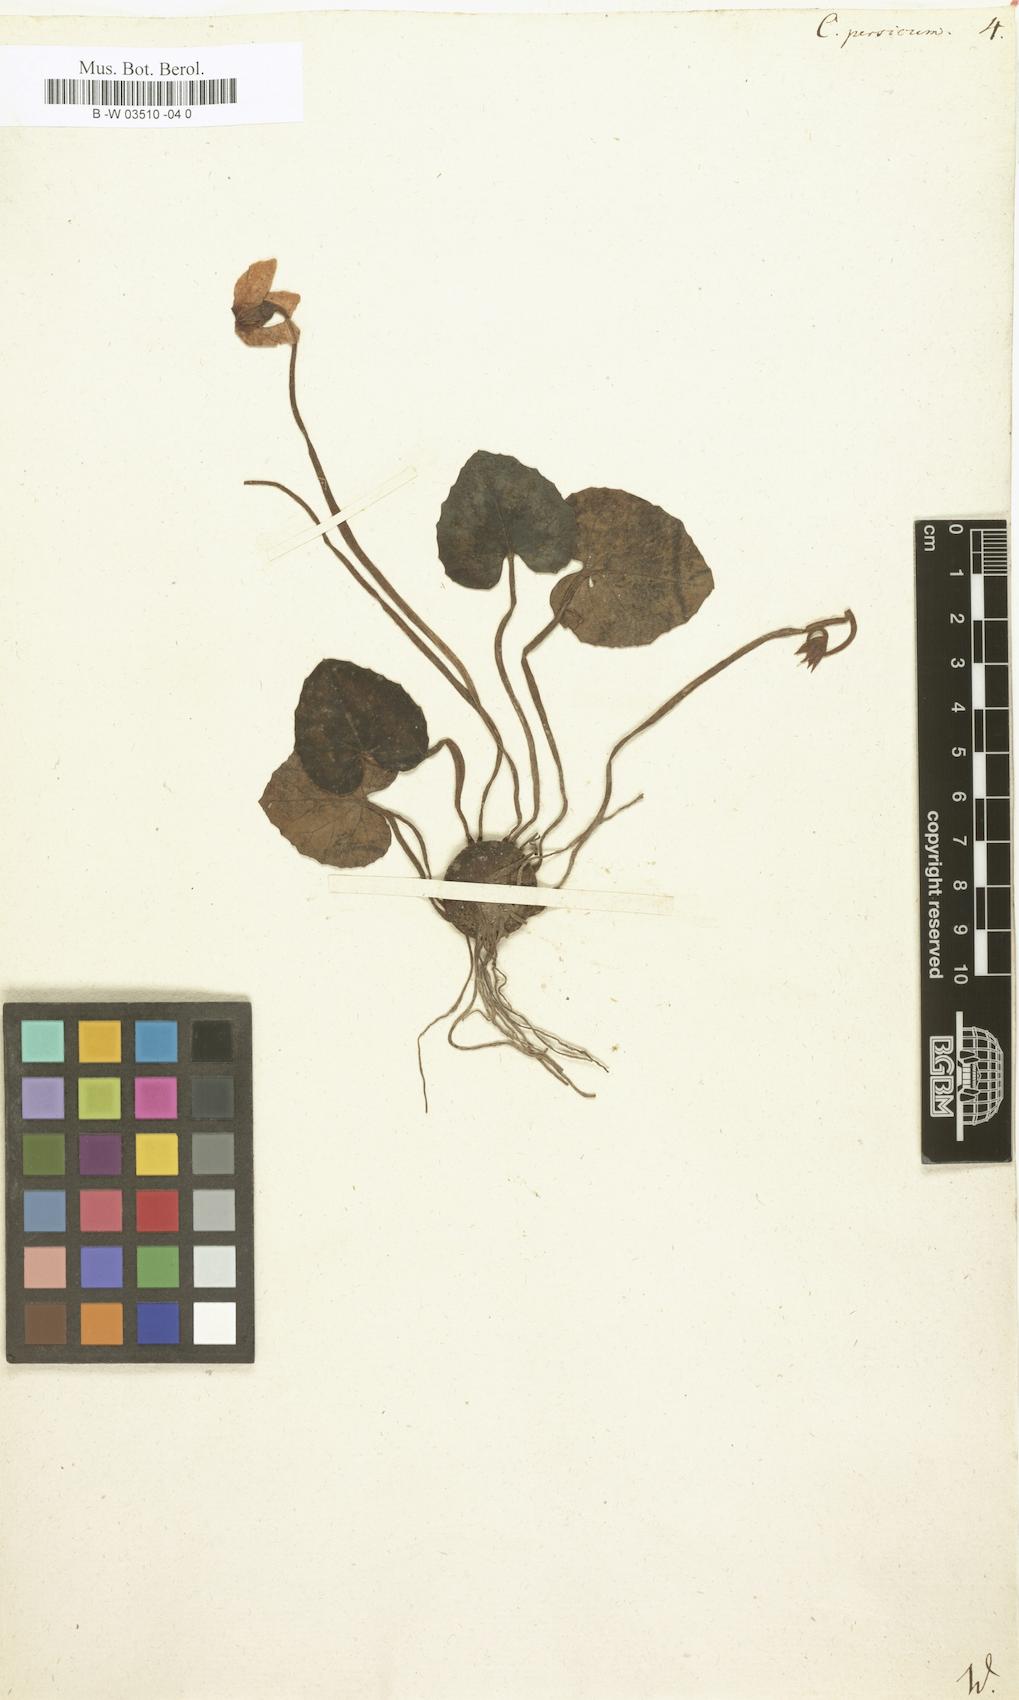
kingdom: Plantae
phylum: Tracheophyta
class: Magnoliopsida
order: Ericales
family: Primulaceae
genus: Cyclamen
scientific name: Cyclamen persicum
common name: Florist's cyclamen
